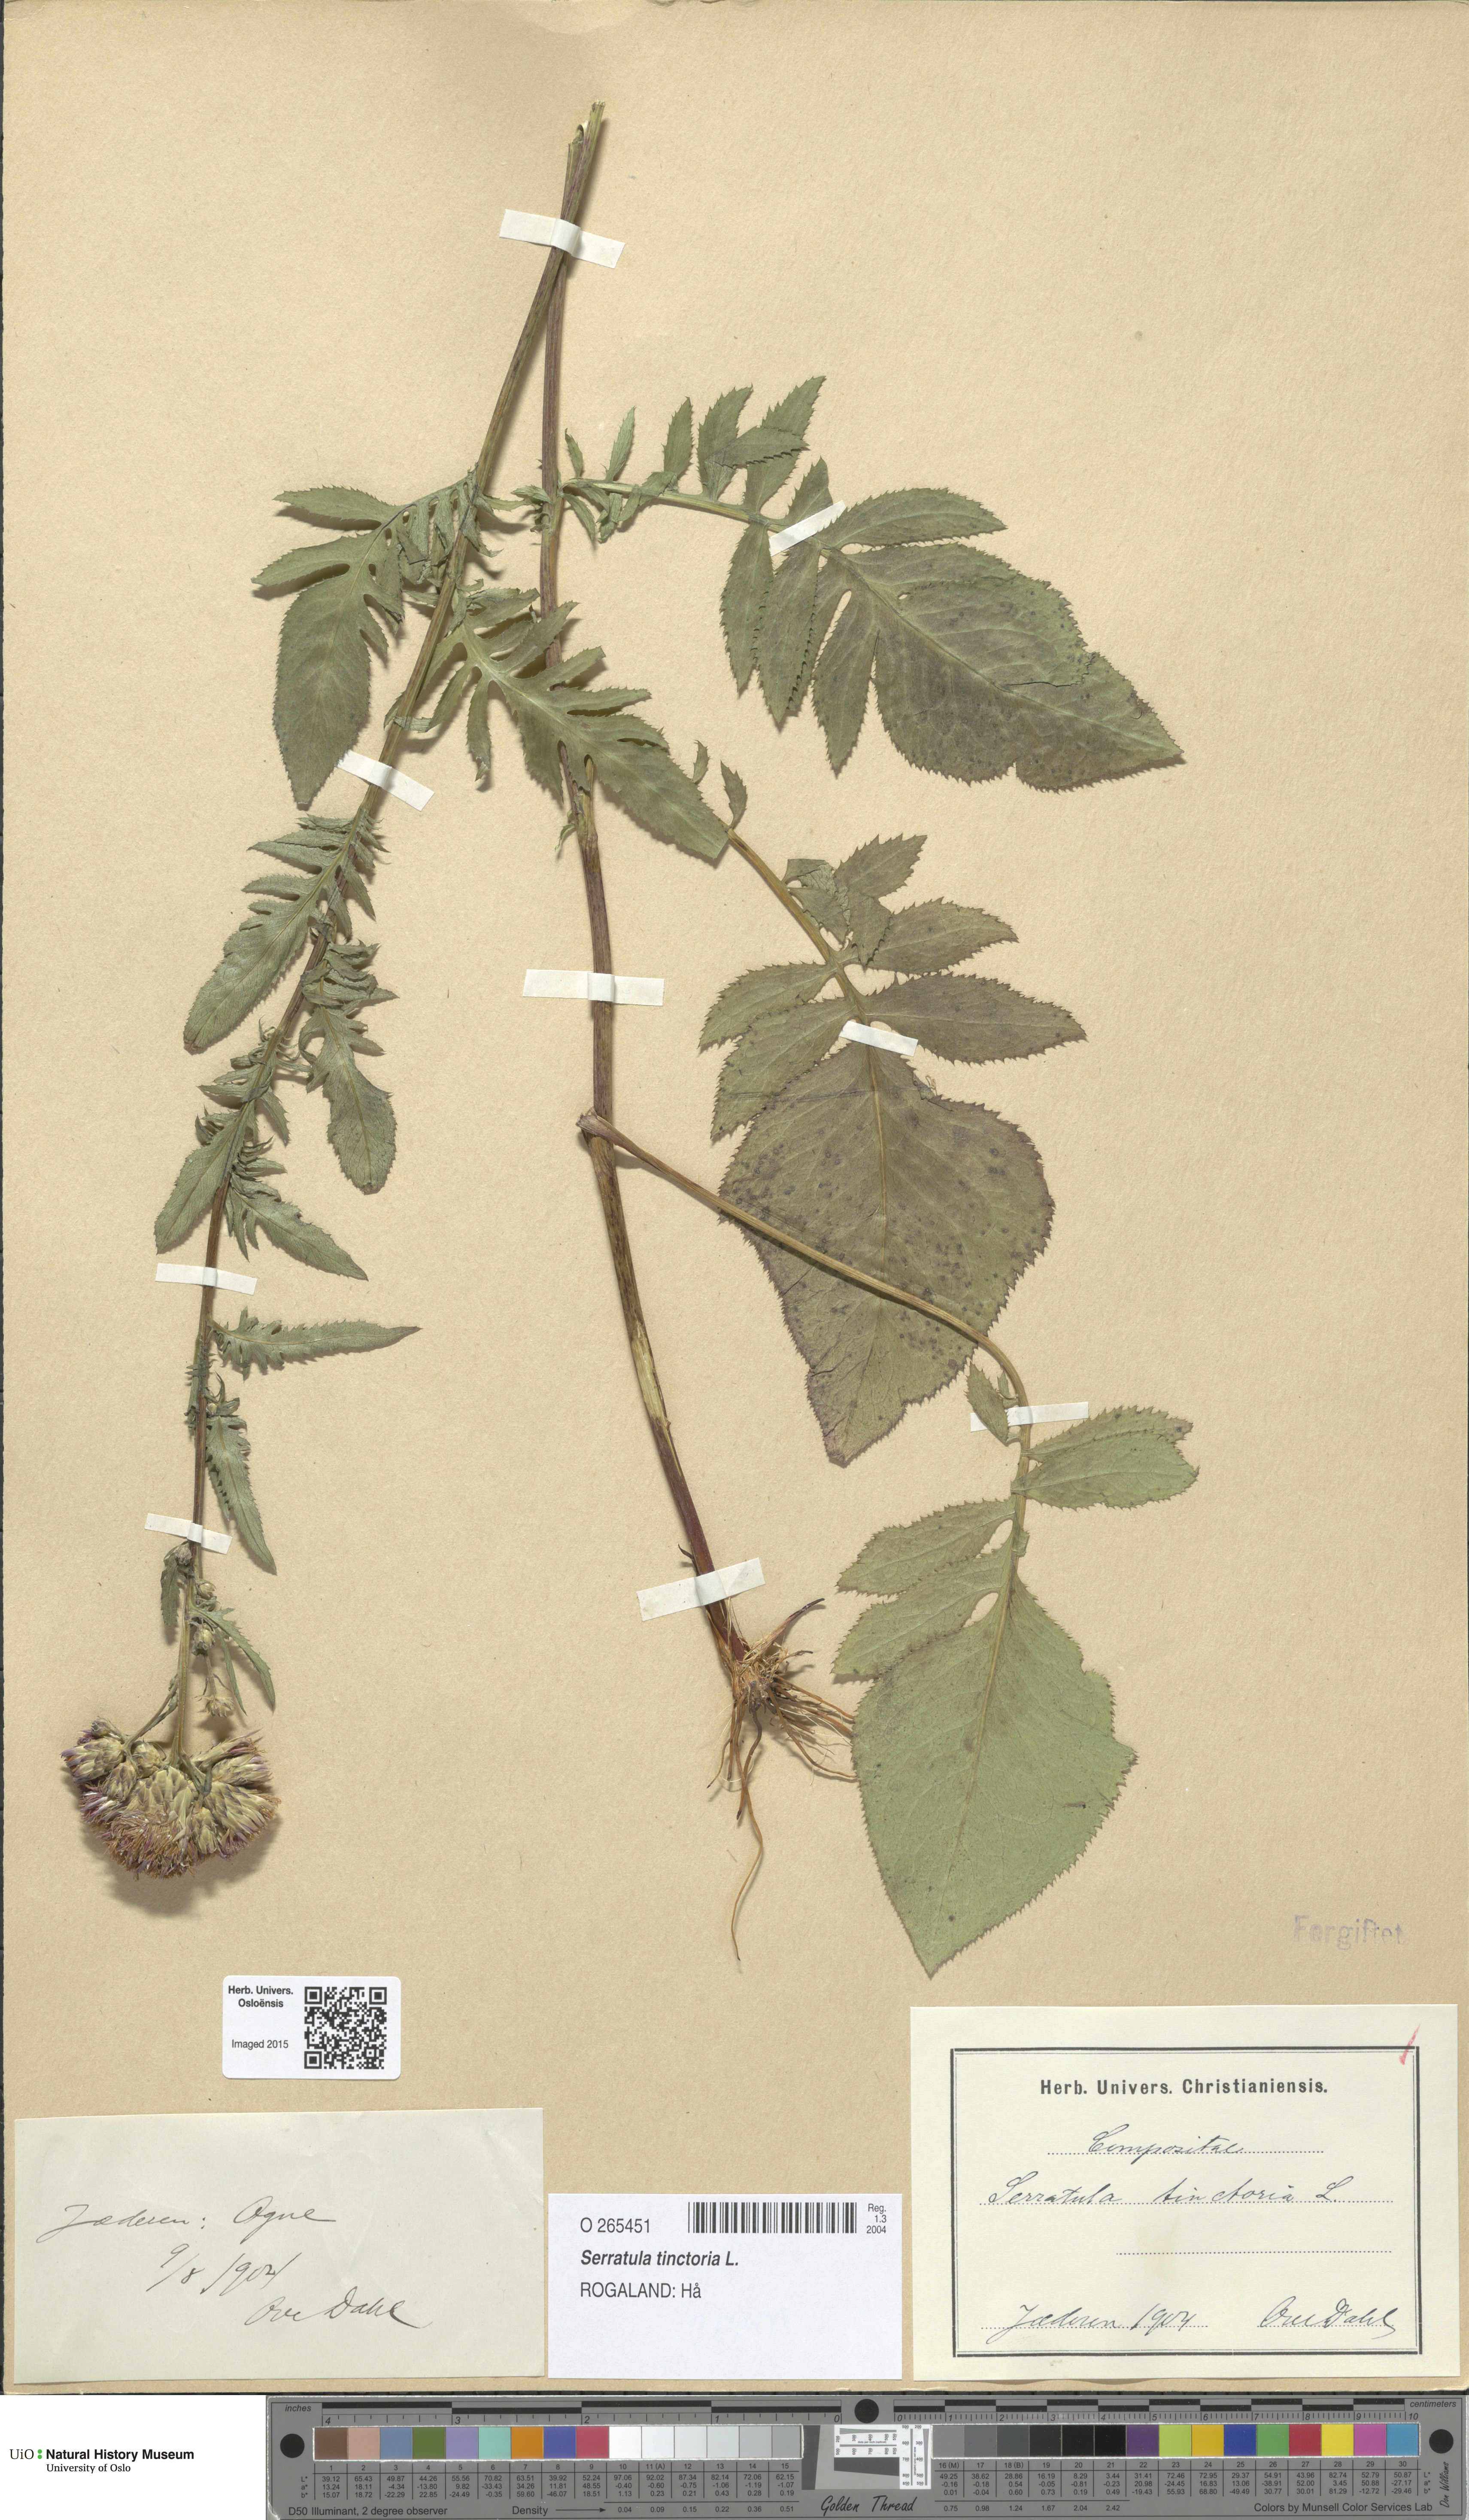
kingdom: Plantae
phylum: Tracheophyta
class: Magnoliopsida
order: Asterales
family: Asteraceae
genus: Serratula
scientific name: Serratula tinctoria
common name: Saw-wort
